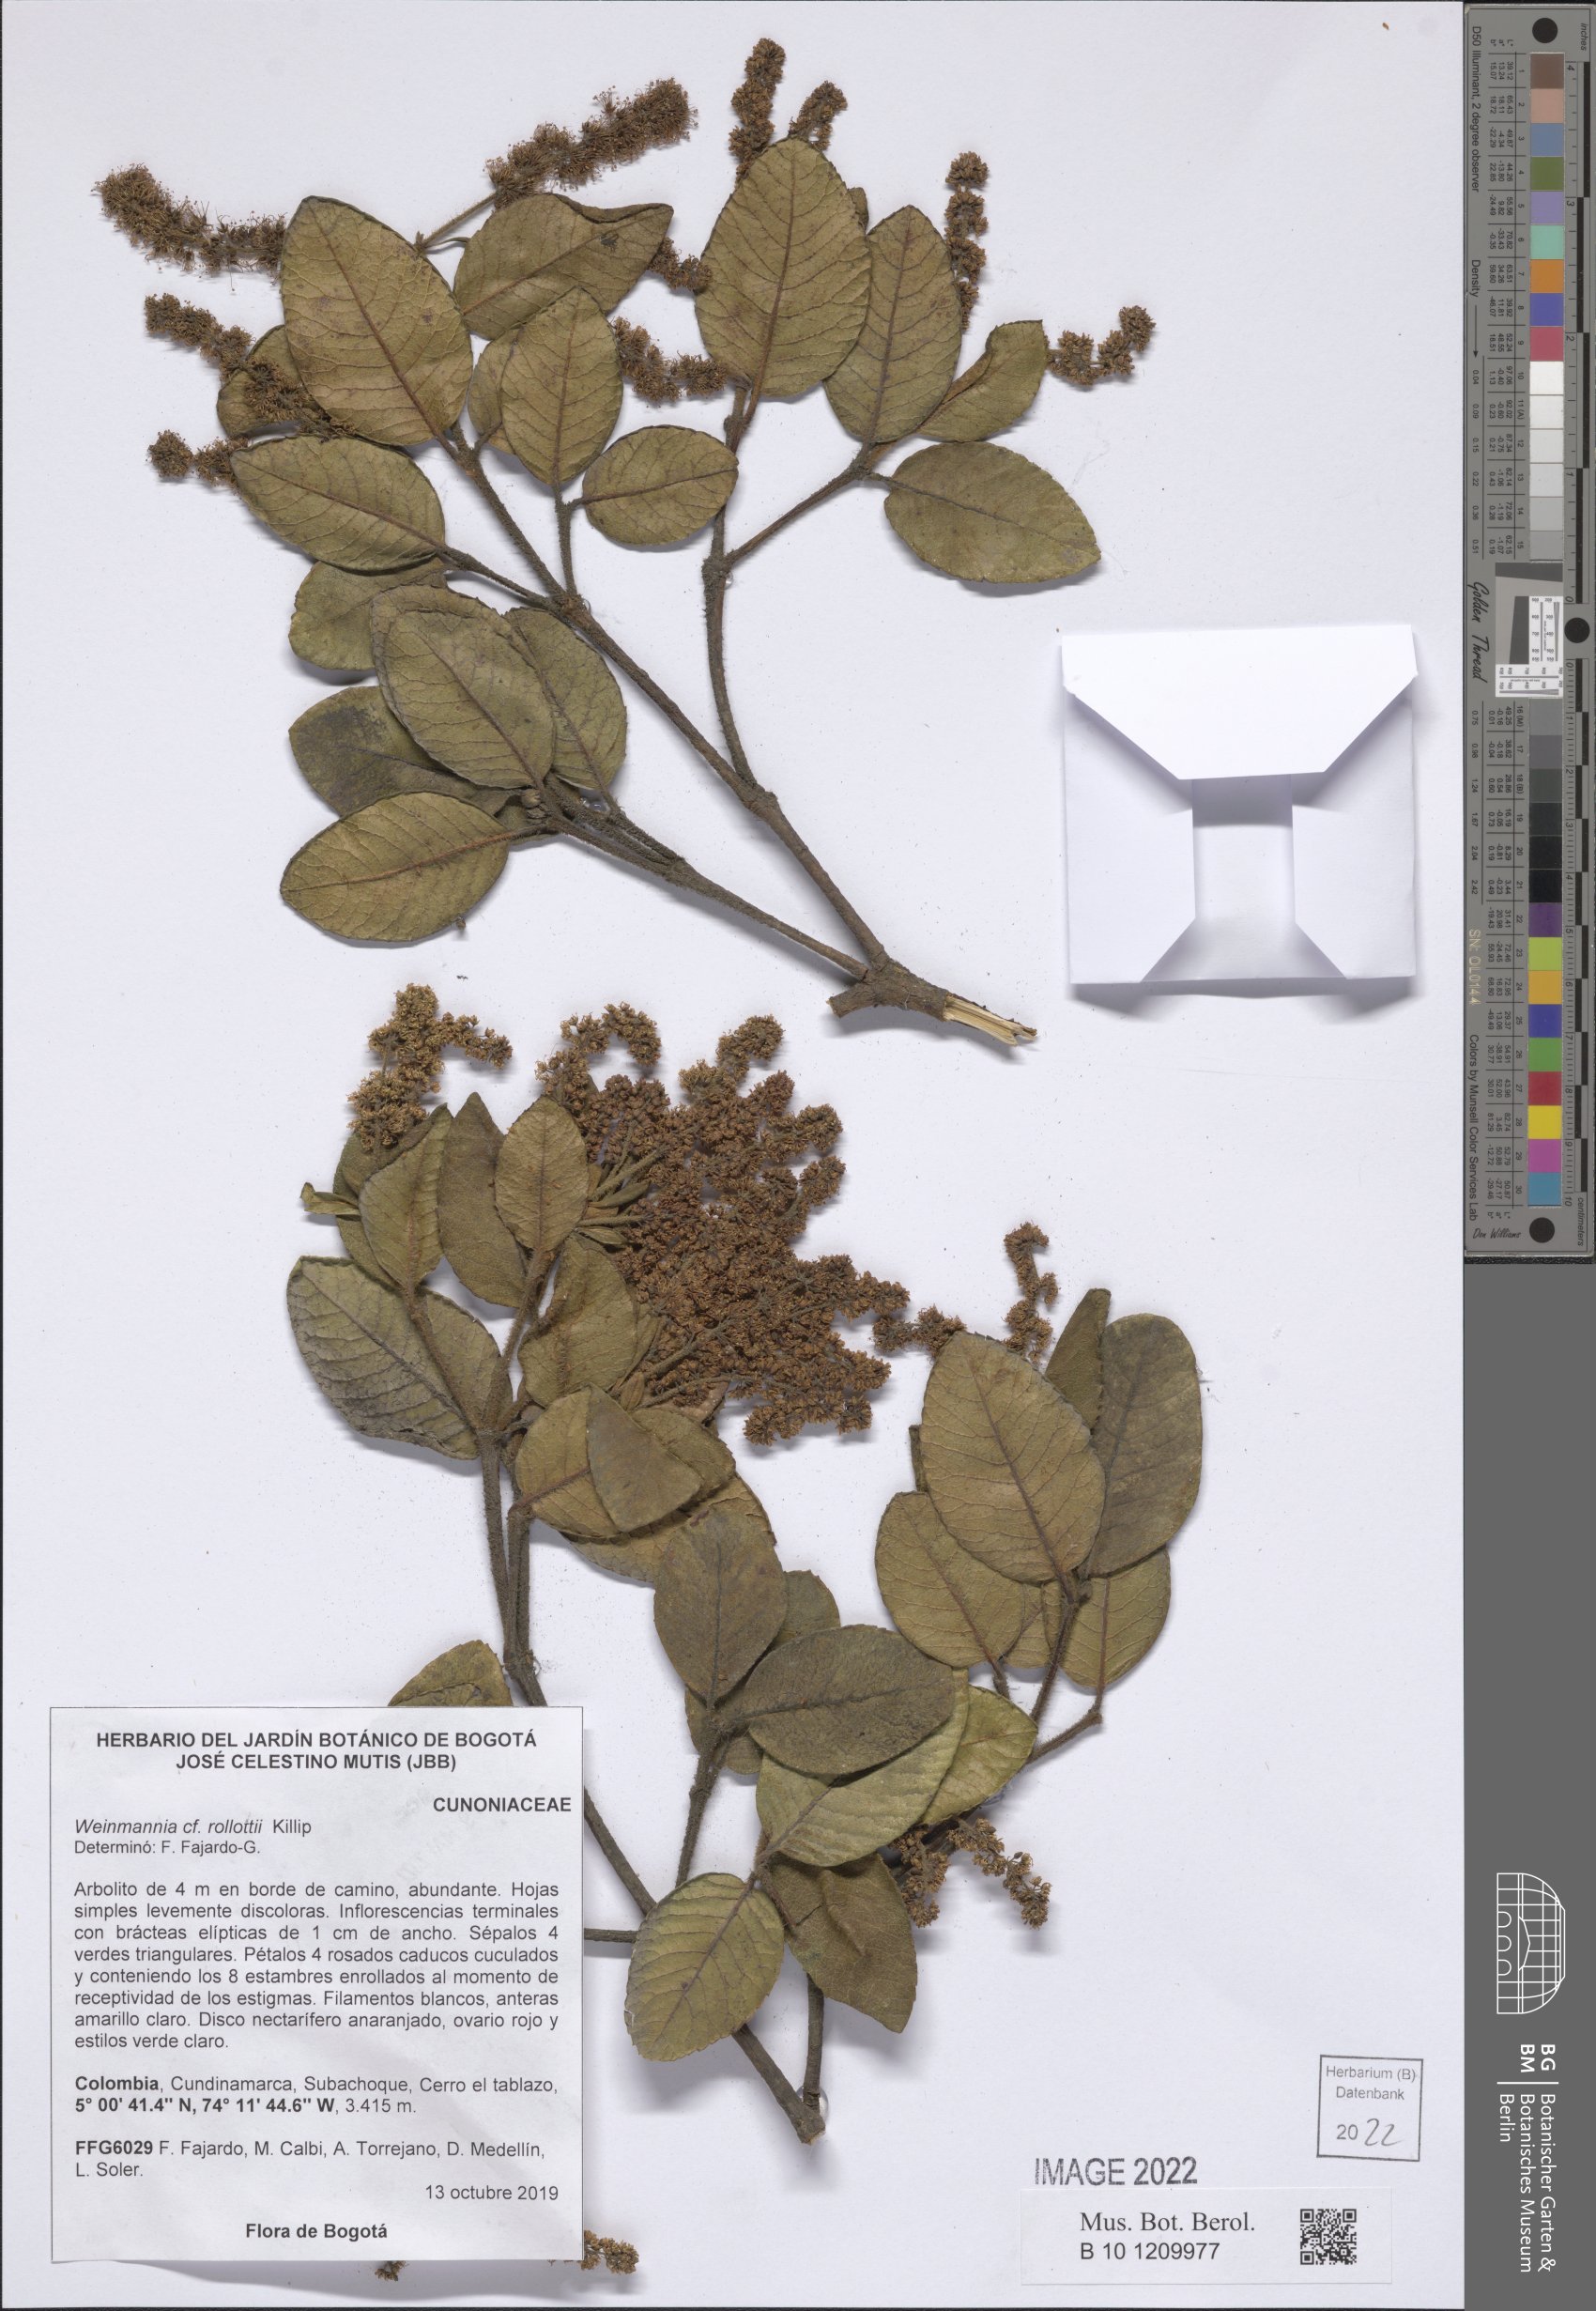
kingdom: Plantae
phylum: Tracheophyta
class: Magnoliopsida
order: Oxalidales
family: Cunoniaceae
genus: Weinmannia
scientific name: Weinmannia rollottii
